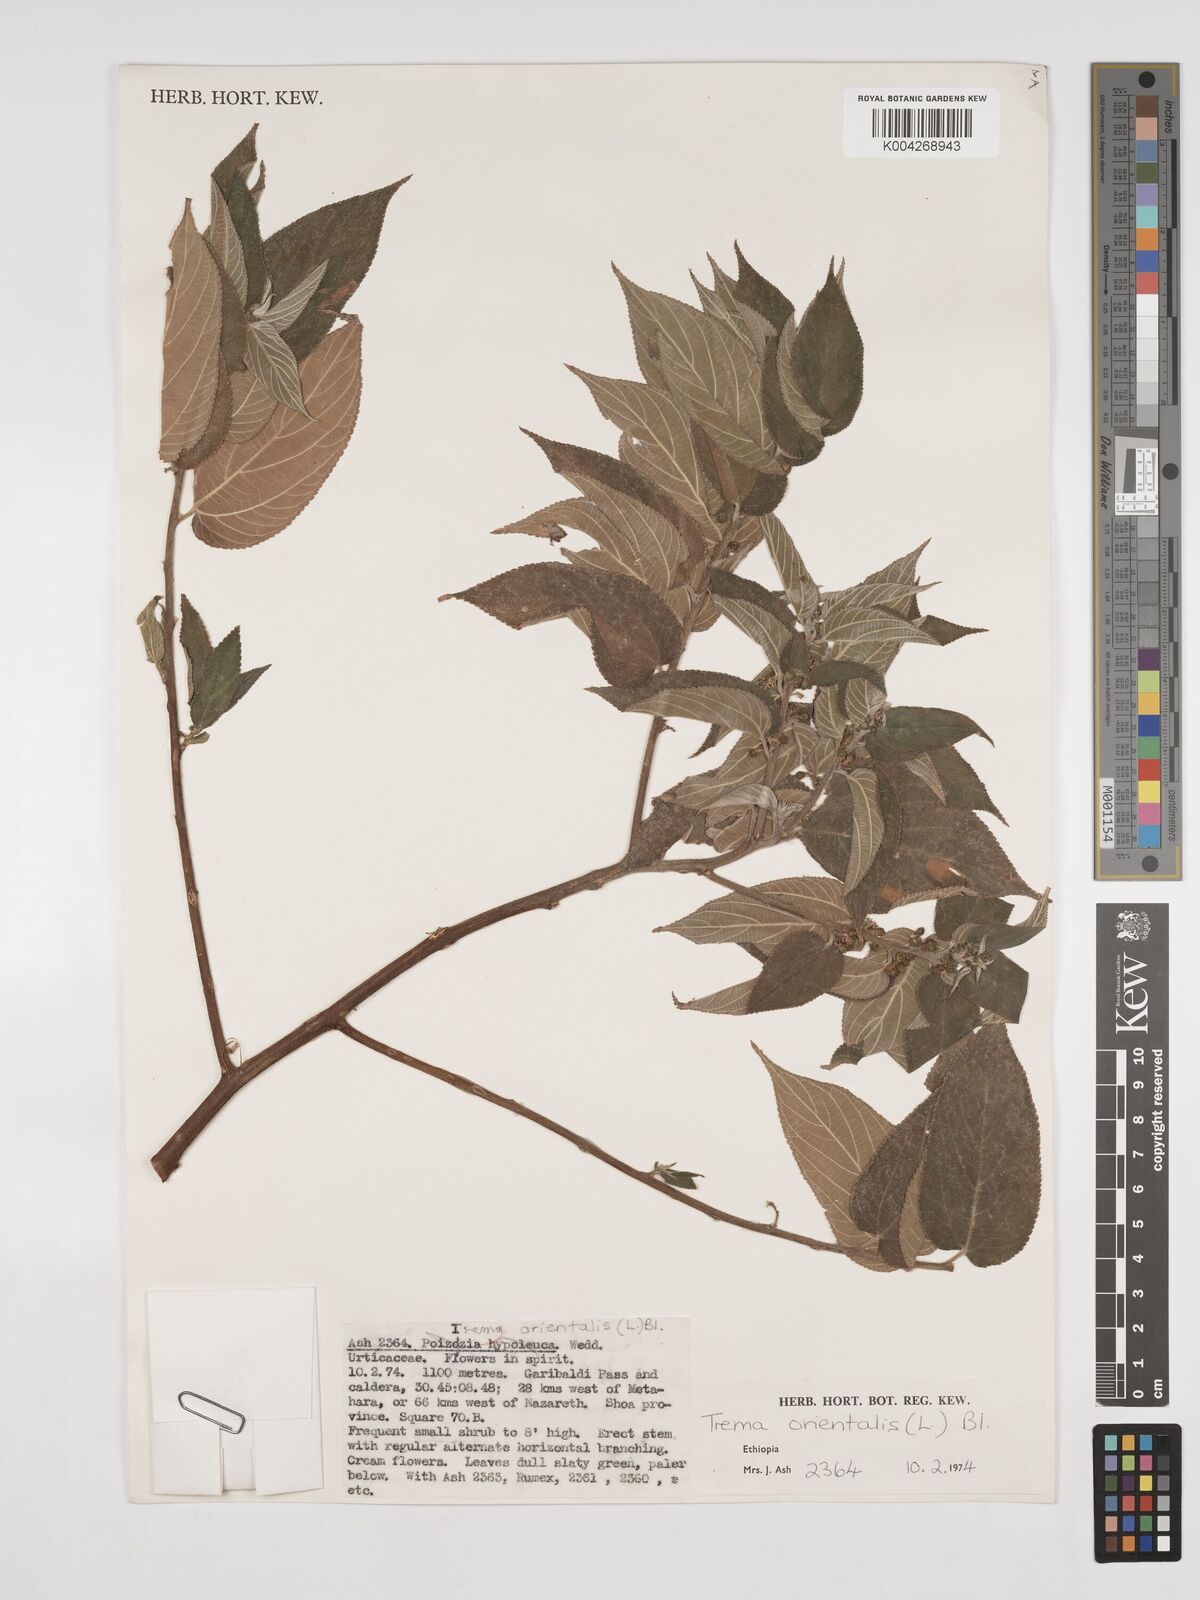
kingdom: Plantae
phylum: Tracheophyta
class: Magnoliopsida
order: Rosales
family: Cannabaceae
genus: Trema
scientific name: Trema orientale
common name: Indian charcoal tree
